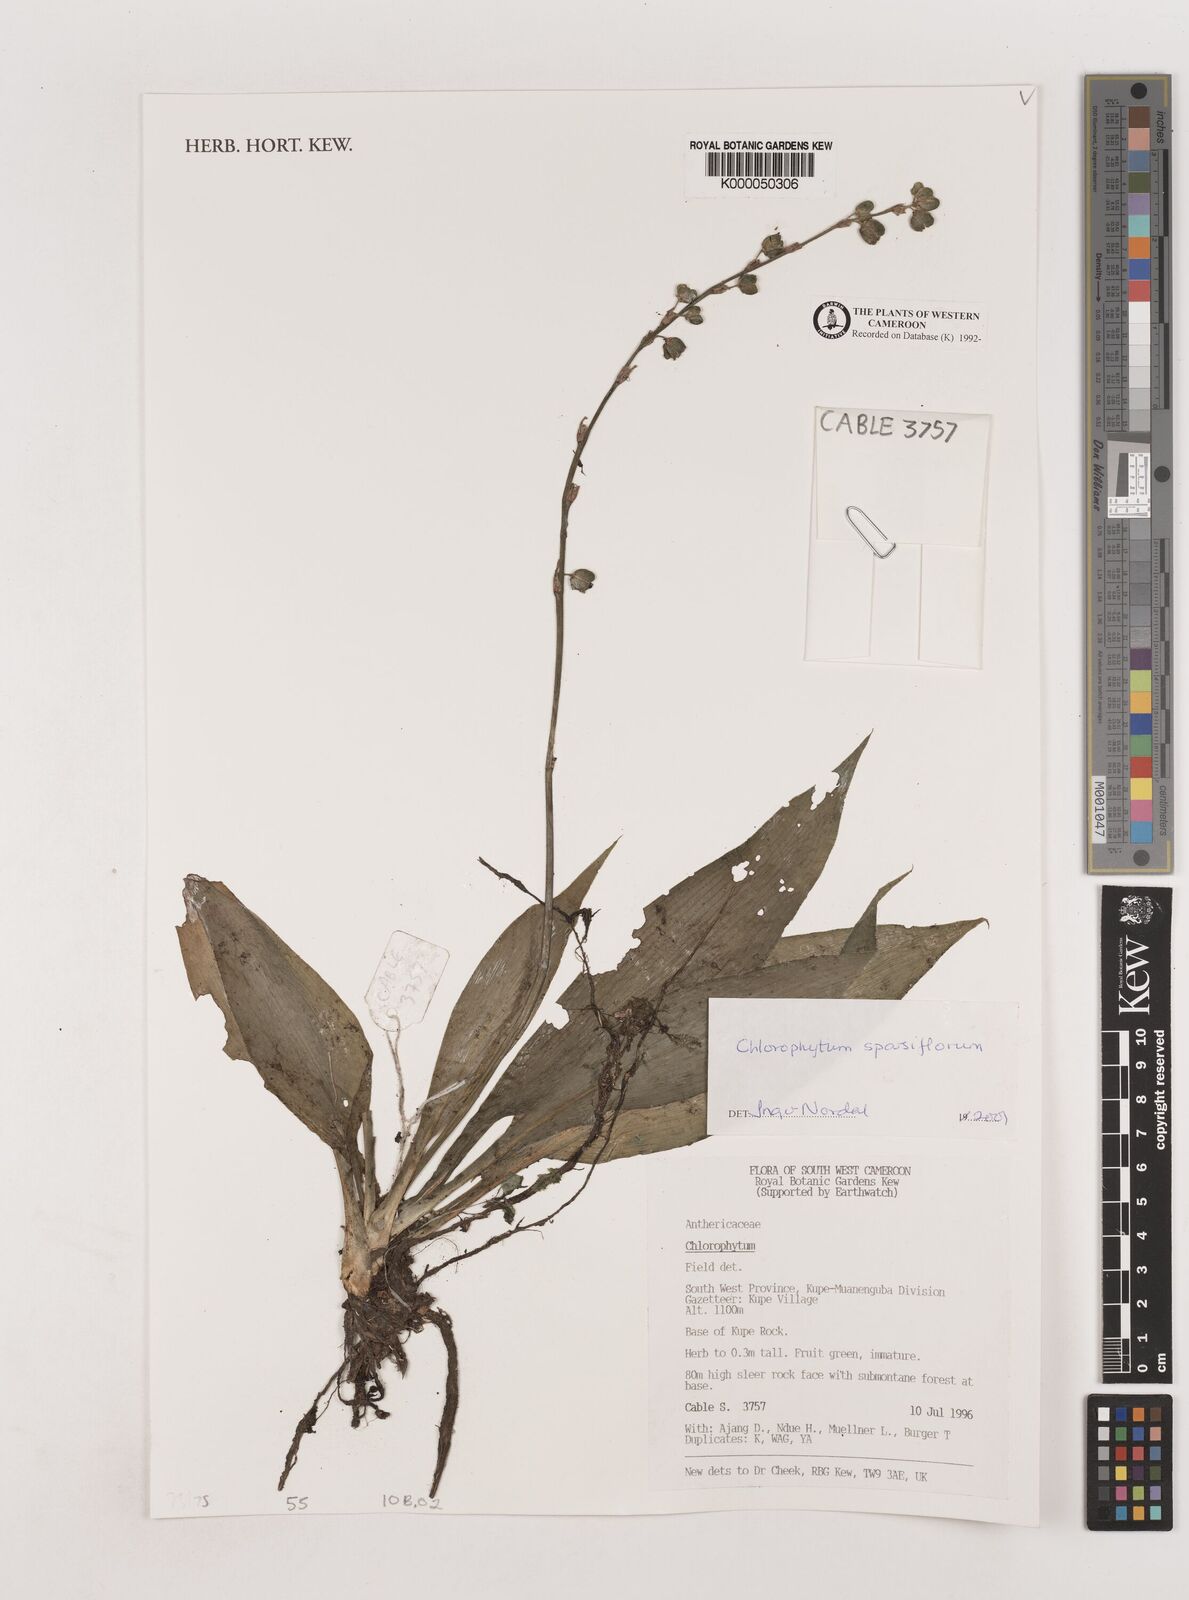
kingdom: Plantae
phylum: Tracheophyta
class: Liliopsida
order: Asparagales
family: Asparagaceae
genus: Chlorophytum
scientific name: Chlorophytum sparsiflorum
